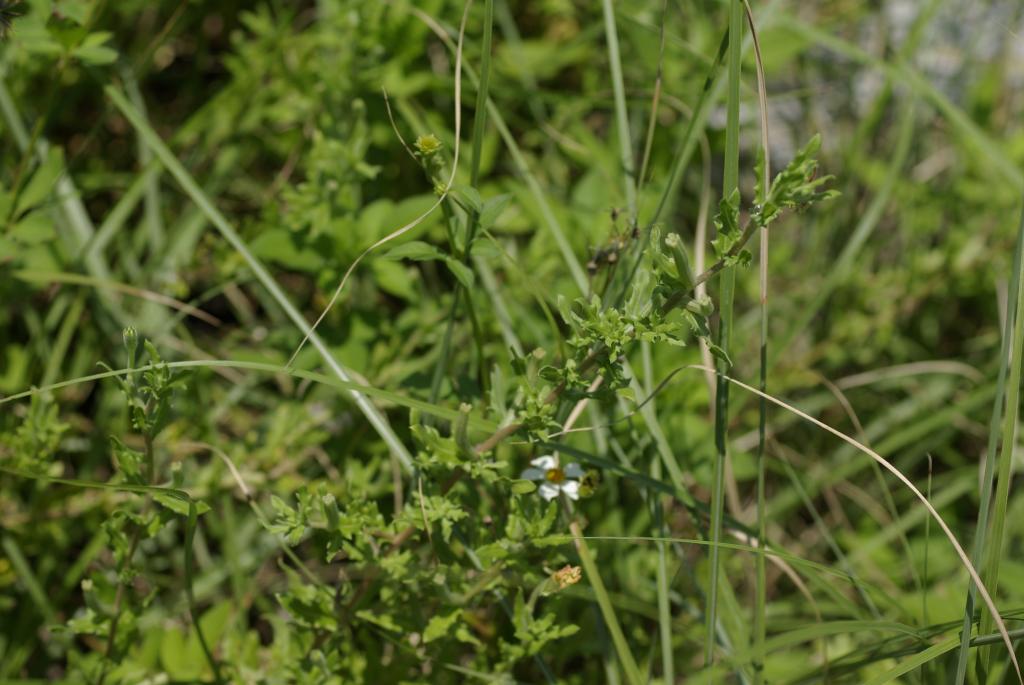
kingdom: Plantae
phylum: Tracheophyta
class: Magnoliopsida
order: Myrtales
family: Onagraceae
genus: Oenothera
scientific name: Oenothera laciniata
